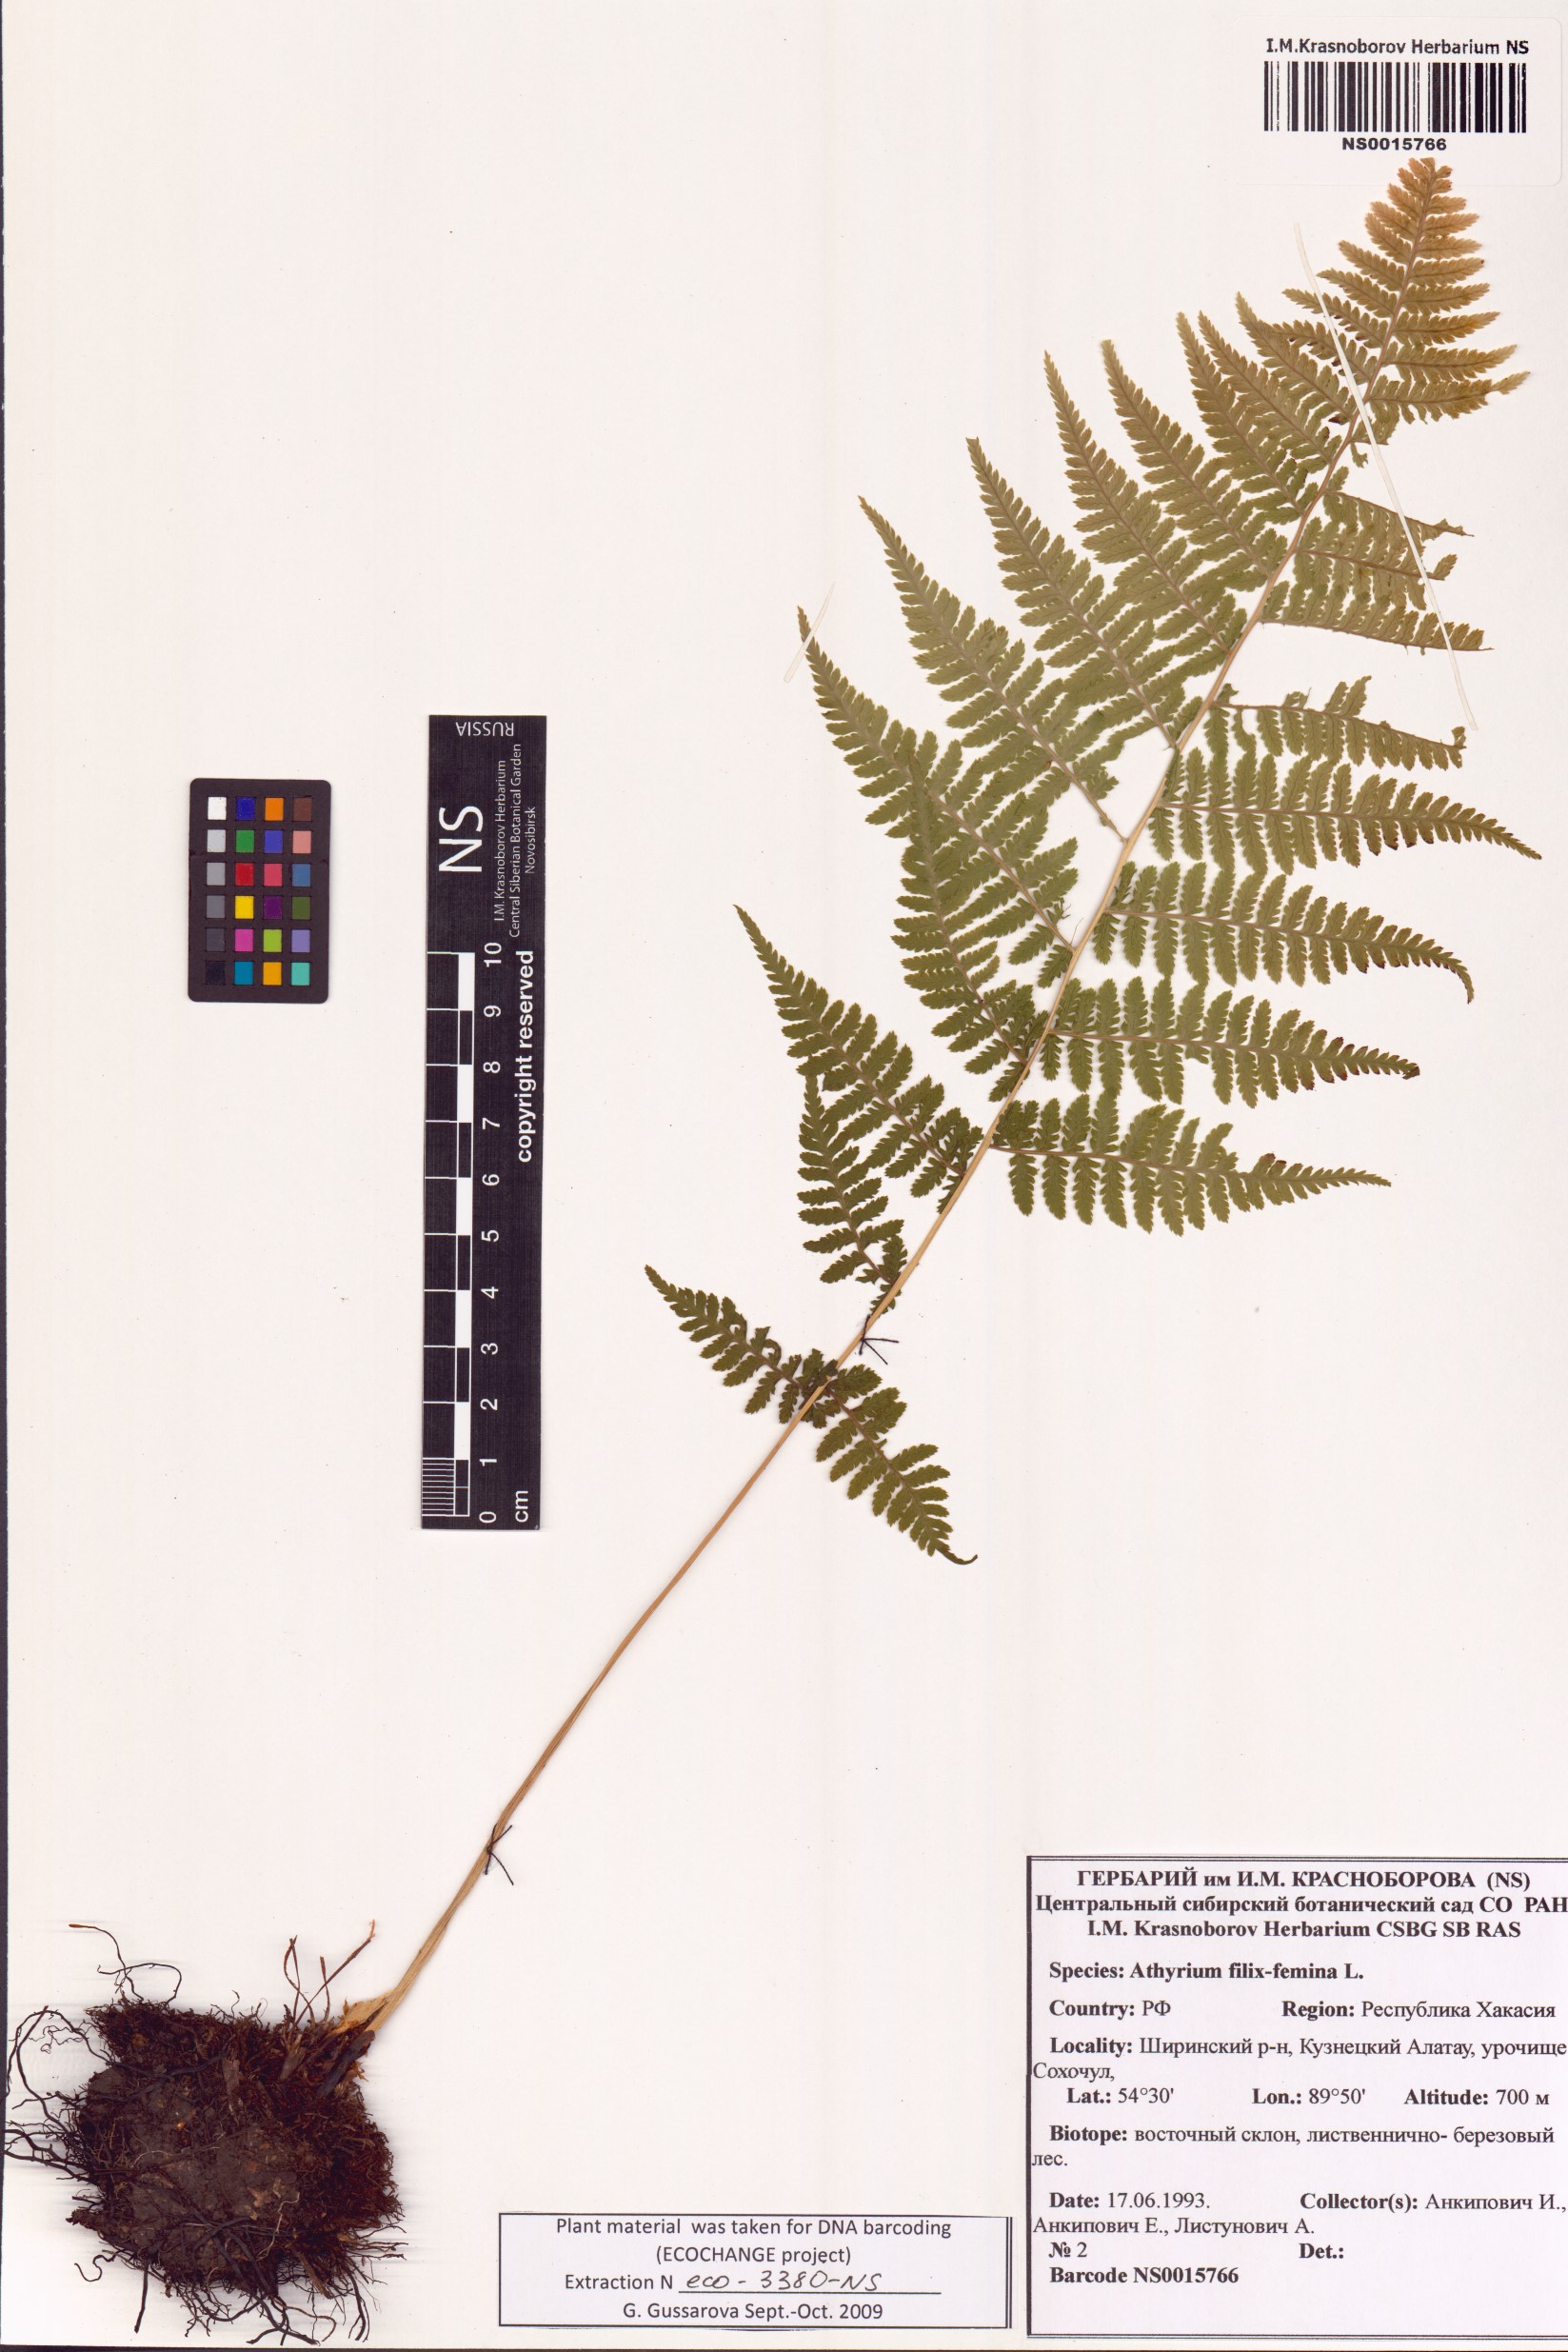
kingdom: Plantae
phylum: Tracheophyta
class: Polypodiopsida
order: Polypodiales
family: Athyriaceae
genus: Athyrium
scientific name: Athyrium filix-femina
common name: Lady fern
